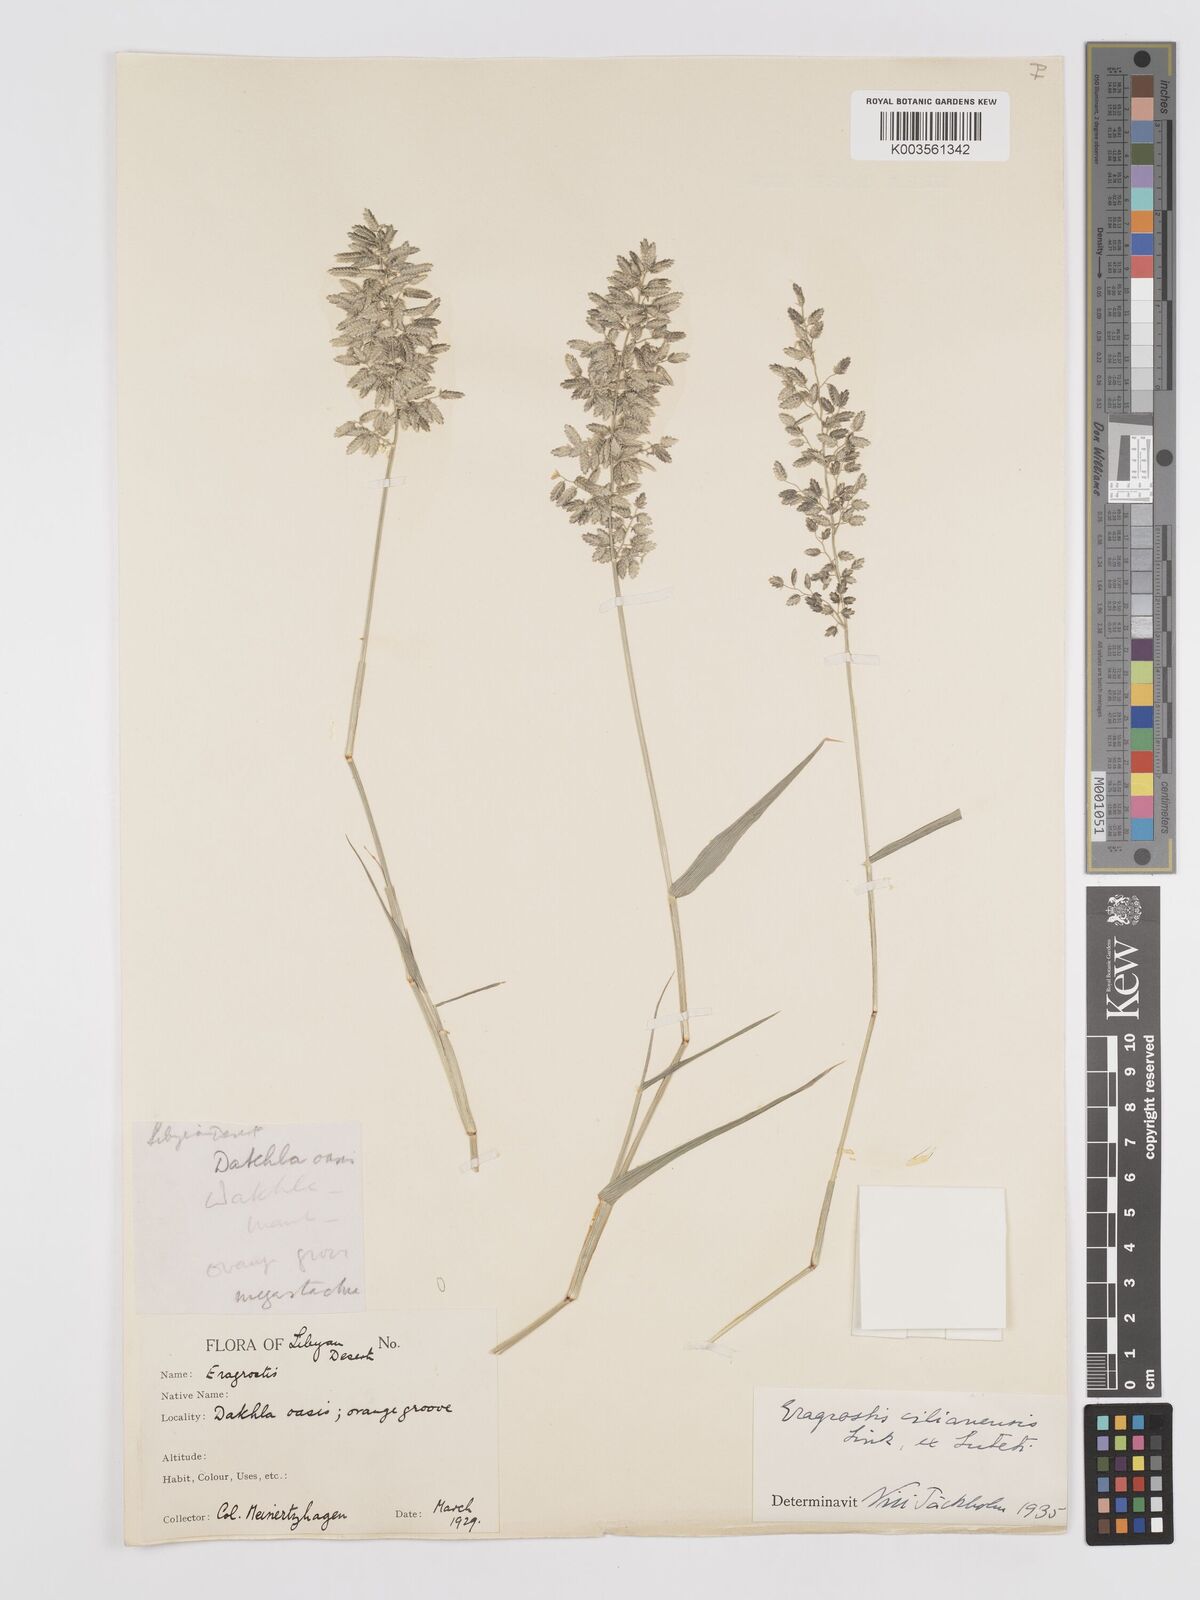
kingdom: Plantae
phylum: Tracheophyta
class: Liliopsida
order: Poales
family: Poaceae
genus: Eragrostis
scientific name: Eragrostis cilianensis
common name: Stinkgrass
